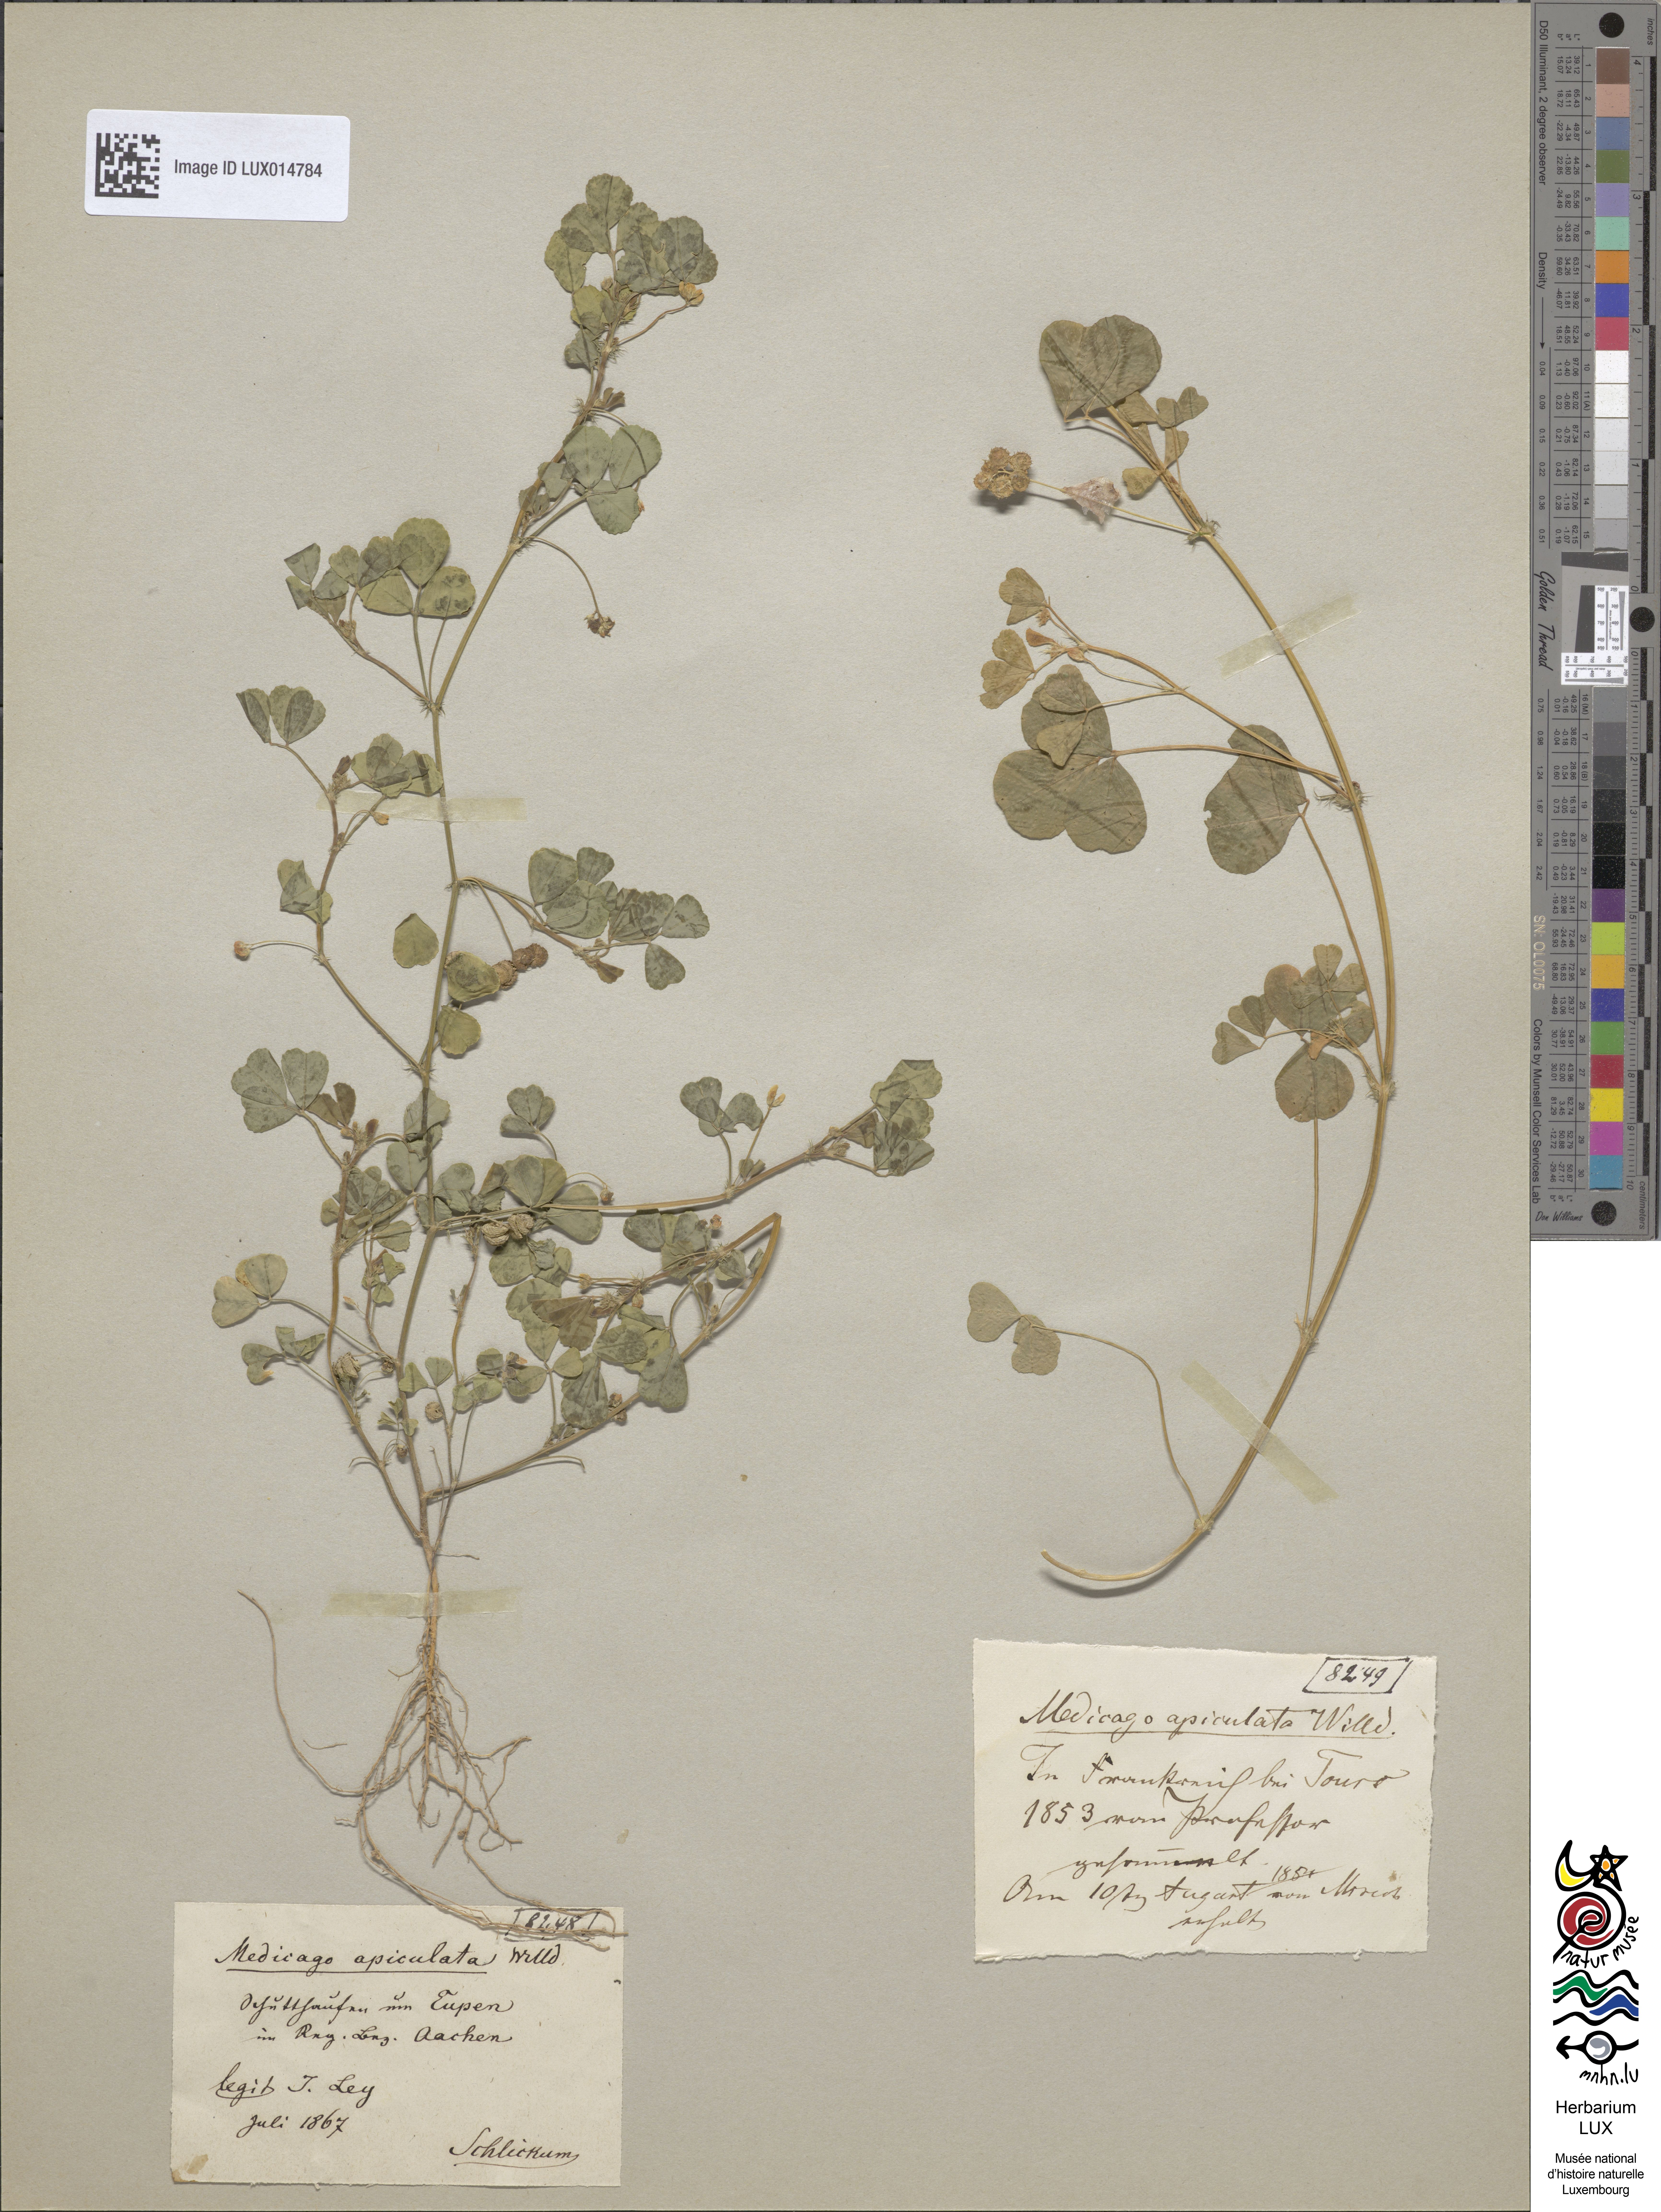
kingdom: Plantae
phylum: Tracheophyta
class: Magnoliopsida
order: Fabales
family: Fabaceae
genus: Medicago
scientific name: Medicago polymorpha
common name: Burclover
